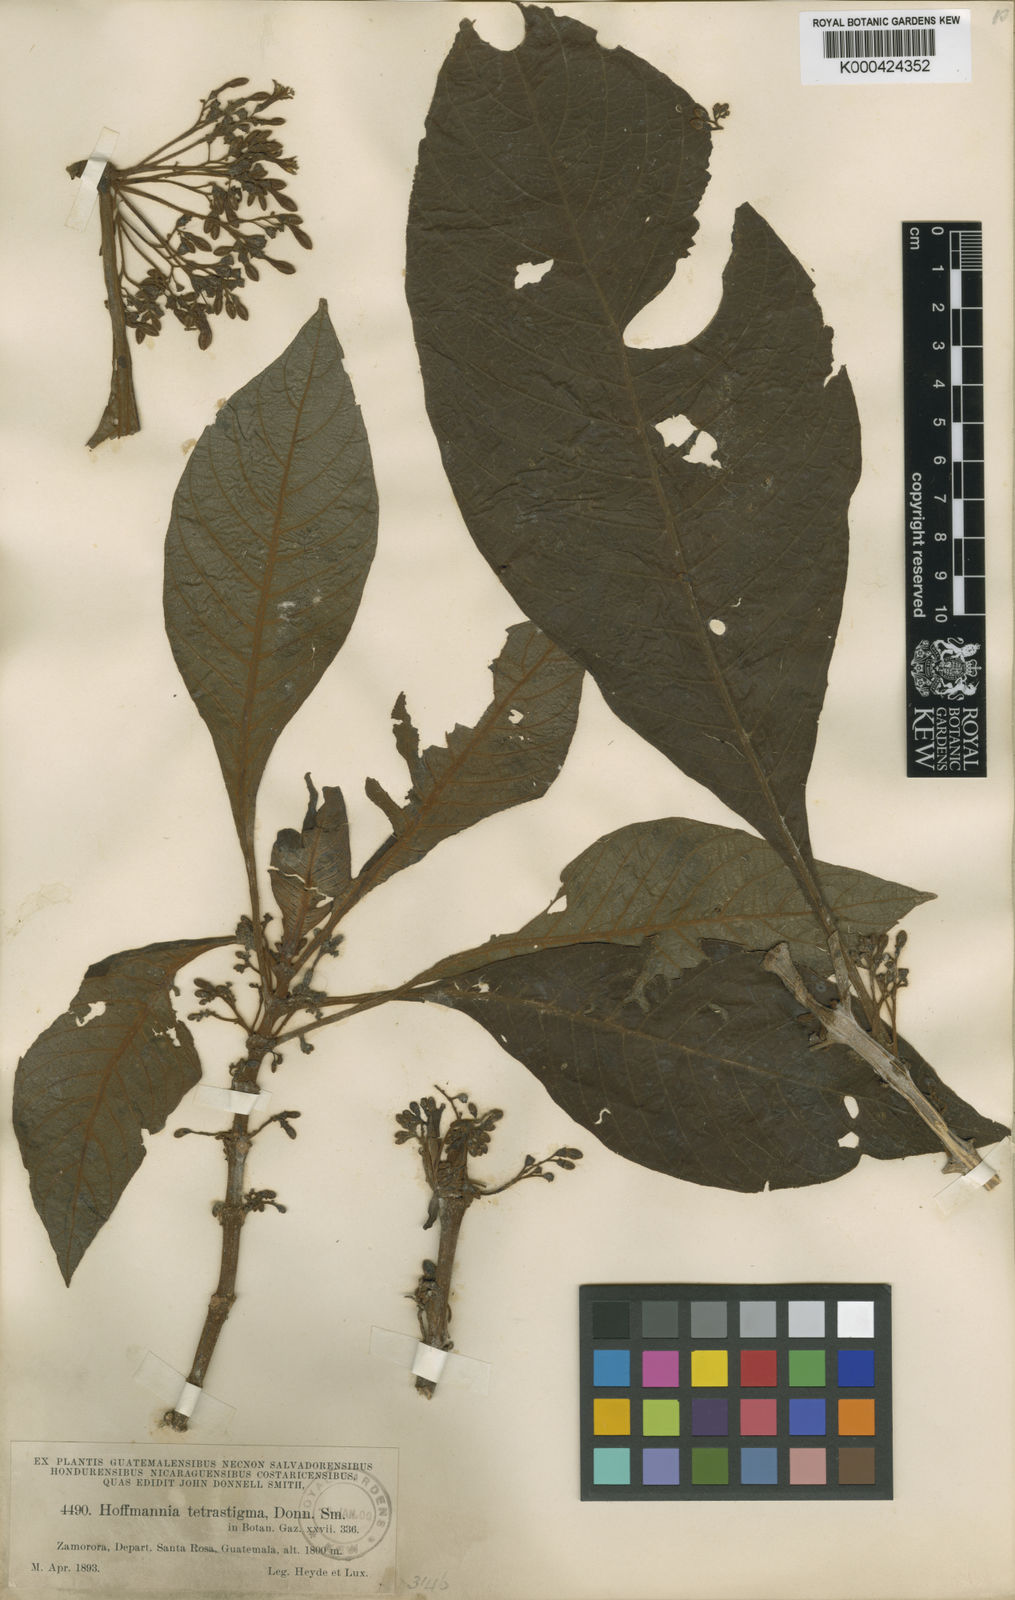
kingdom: Plantae
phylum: Tracheophyta
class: Magnoliopsida
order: Gentianales
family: Rubiaceae
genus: Hoffmannia
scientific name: Hoffmannia tetrastigma
